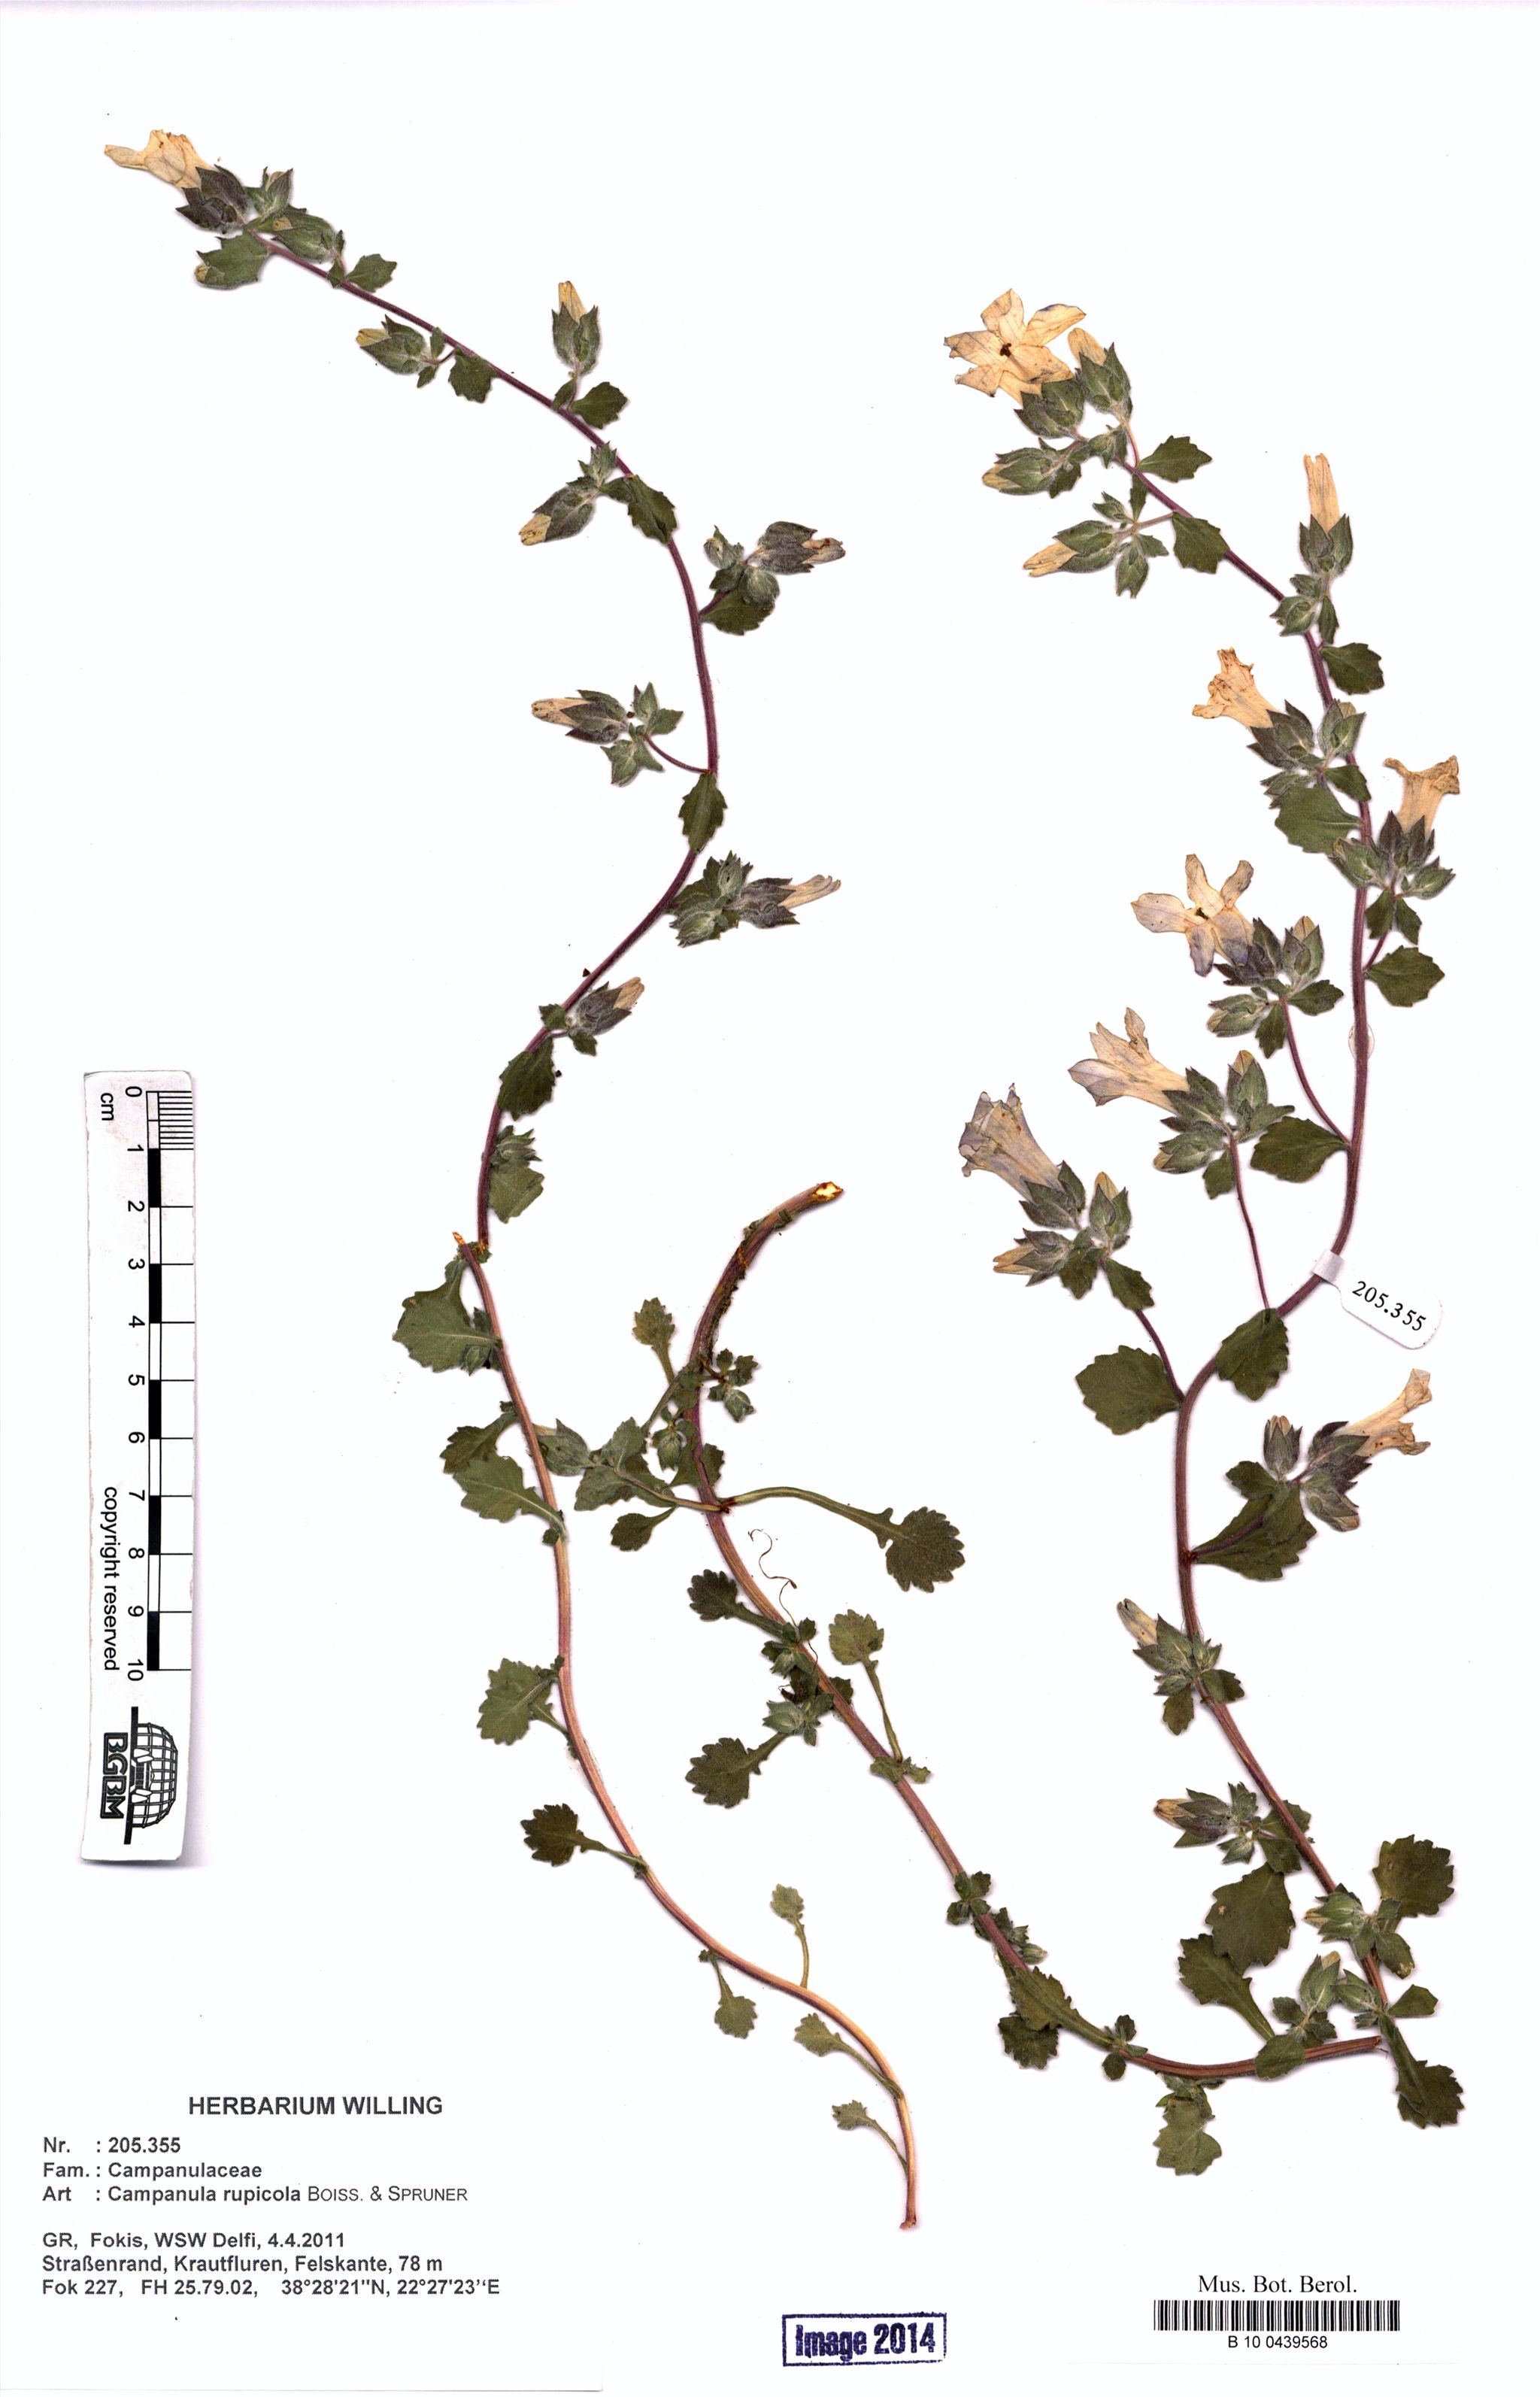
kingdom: Plantae
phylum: Tracheophyta
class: Magnoliopsida
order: Asterales
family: Campanulaceae
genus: Campanula
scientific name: Campanula rupicola
